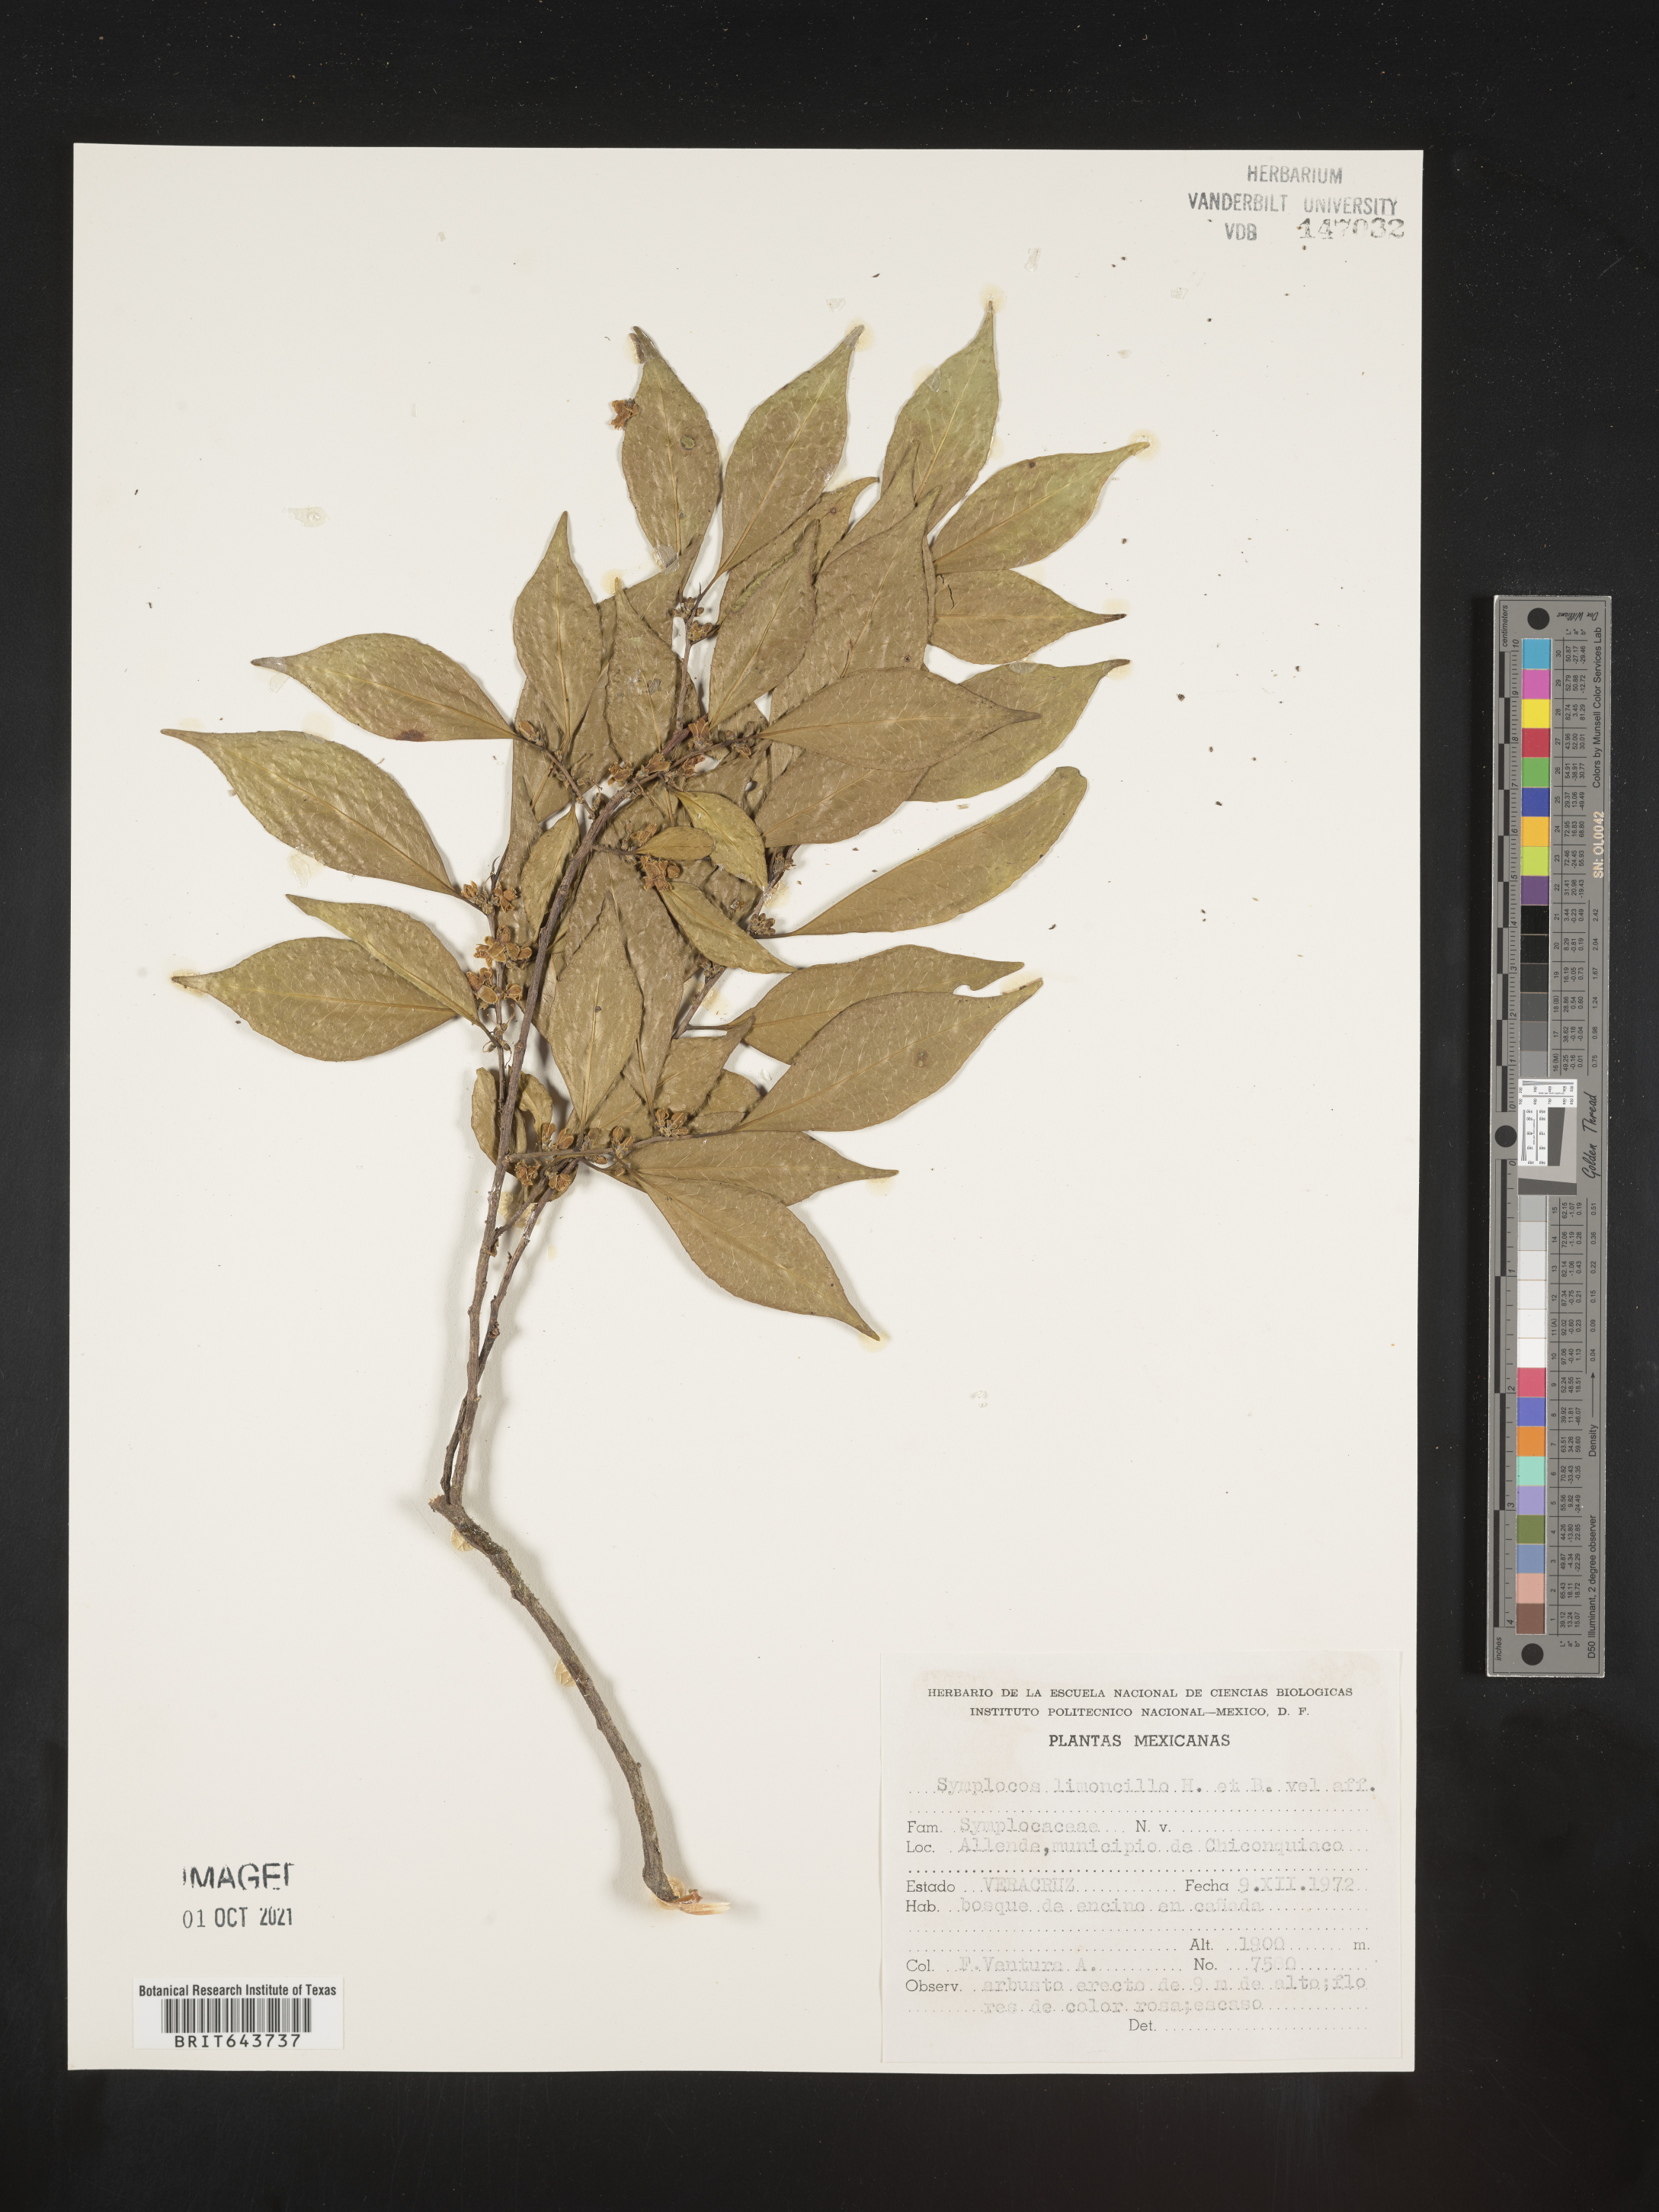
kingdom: Plantae
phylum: Tracheophyta
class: Magnoliopsida
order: Ericales
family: Symplocaceae
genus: Symplocos
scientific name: Symplocos
